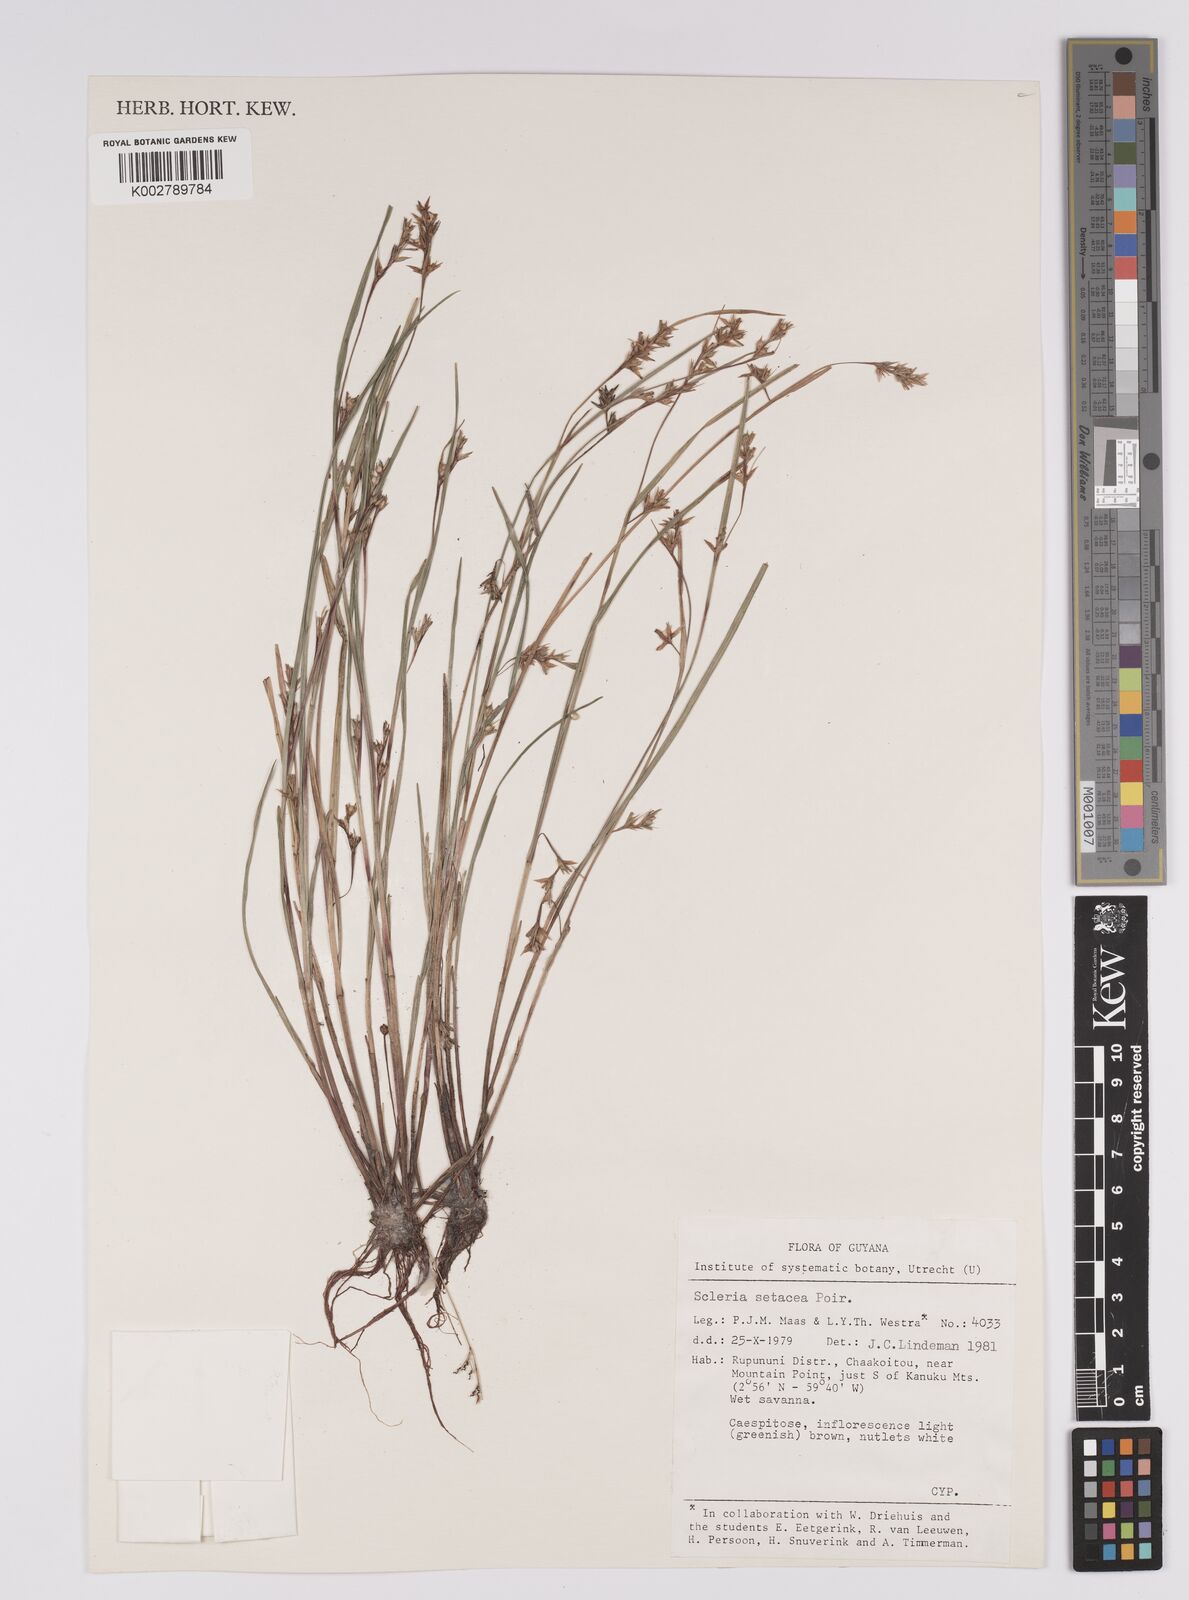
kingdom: Plantae
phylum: Tracheophyta
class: Liliopsida
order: Poales
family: Cyperaceae
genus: Rhynchospora
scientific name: Rhynchospora tenerrima
